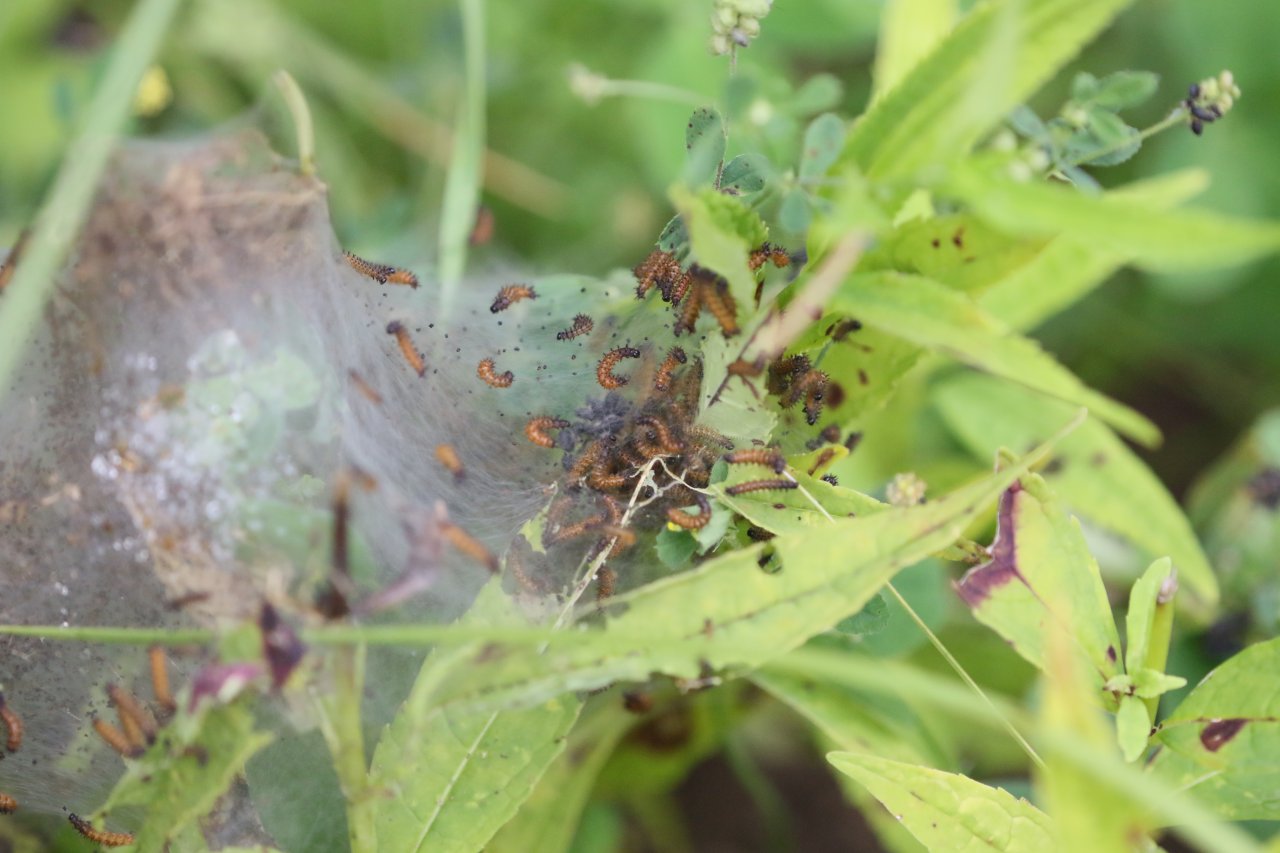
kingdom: Animalia
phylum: Arthropoda
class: Insecta
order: Lepidoptera
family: Nymphalidae
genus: Euphydryas
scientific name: Euphydryas phaeton
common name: Baltimore Checkerspot
